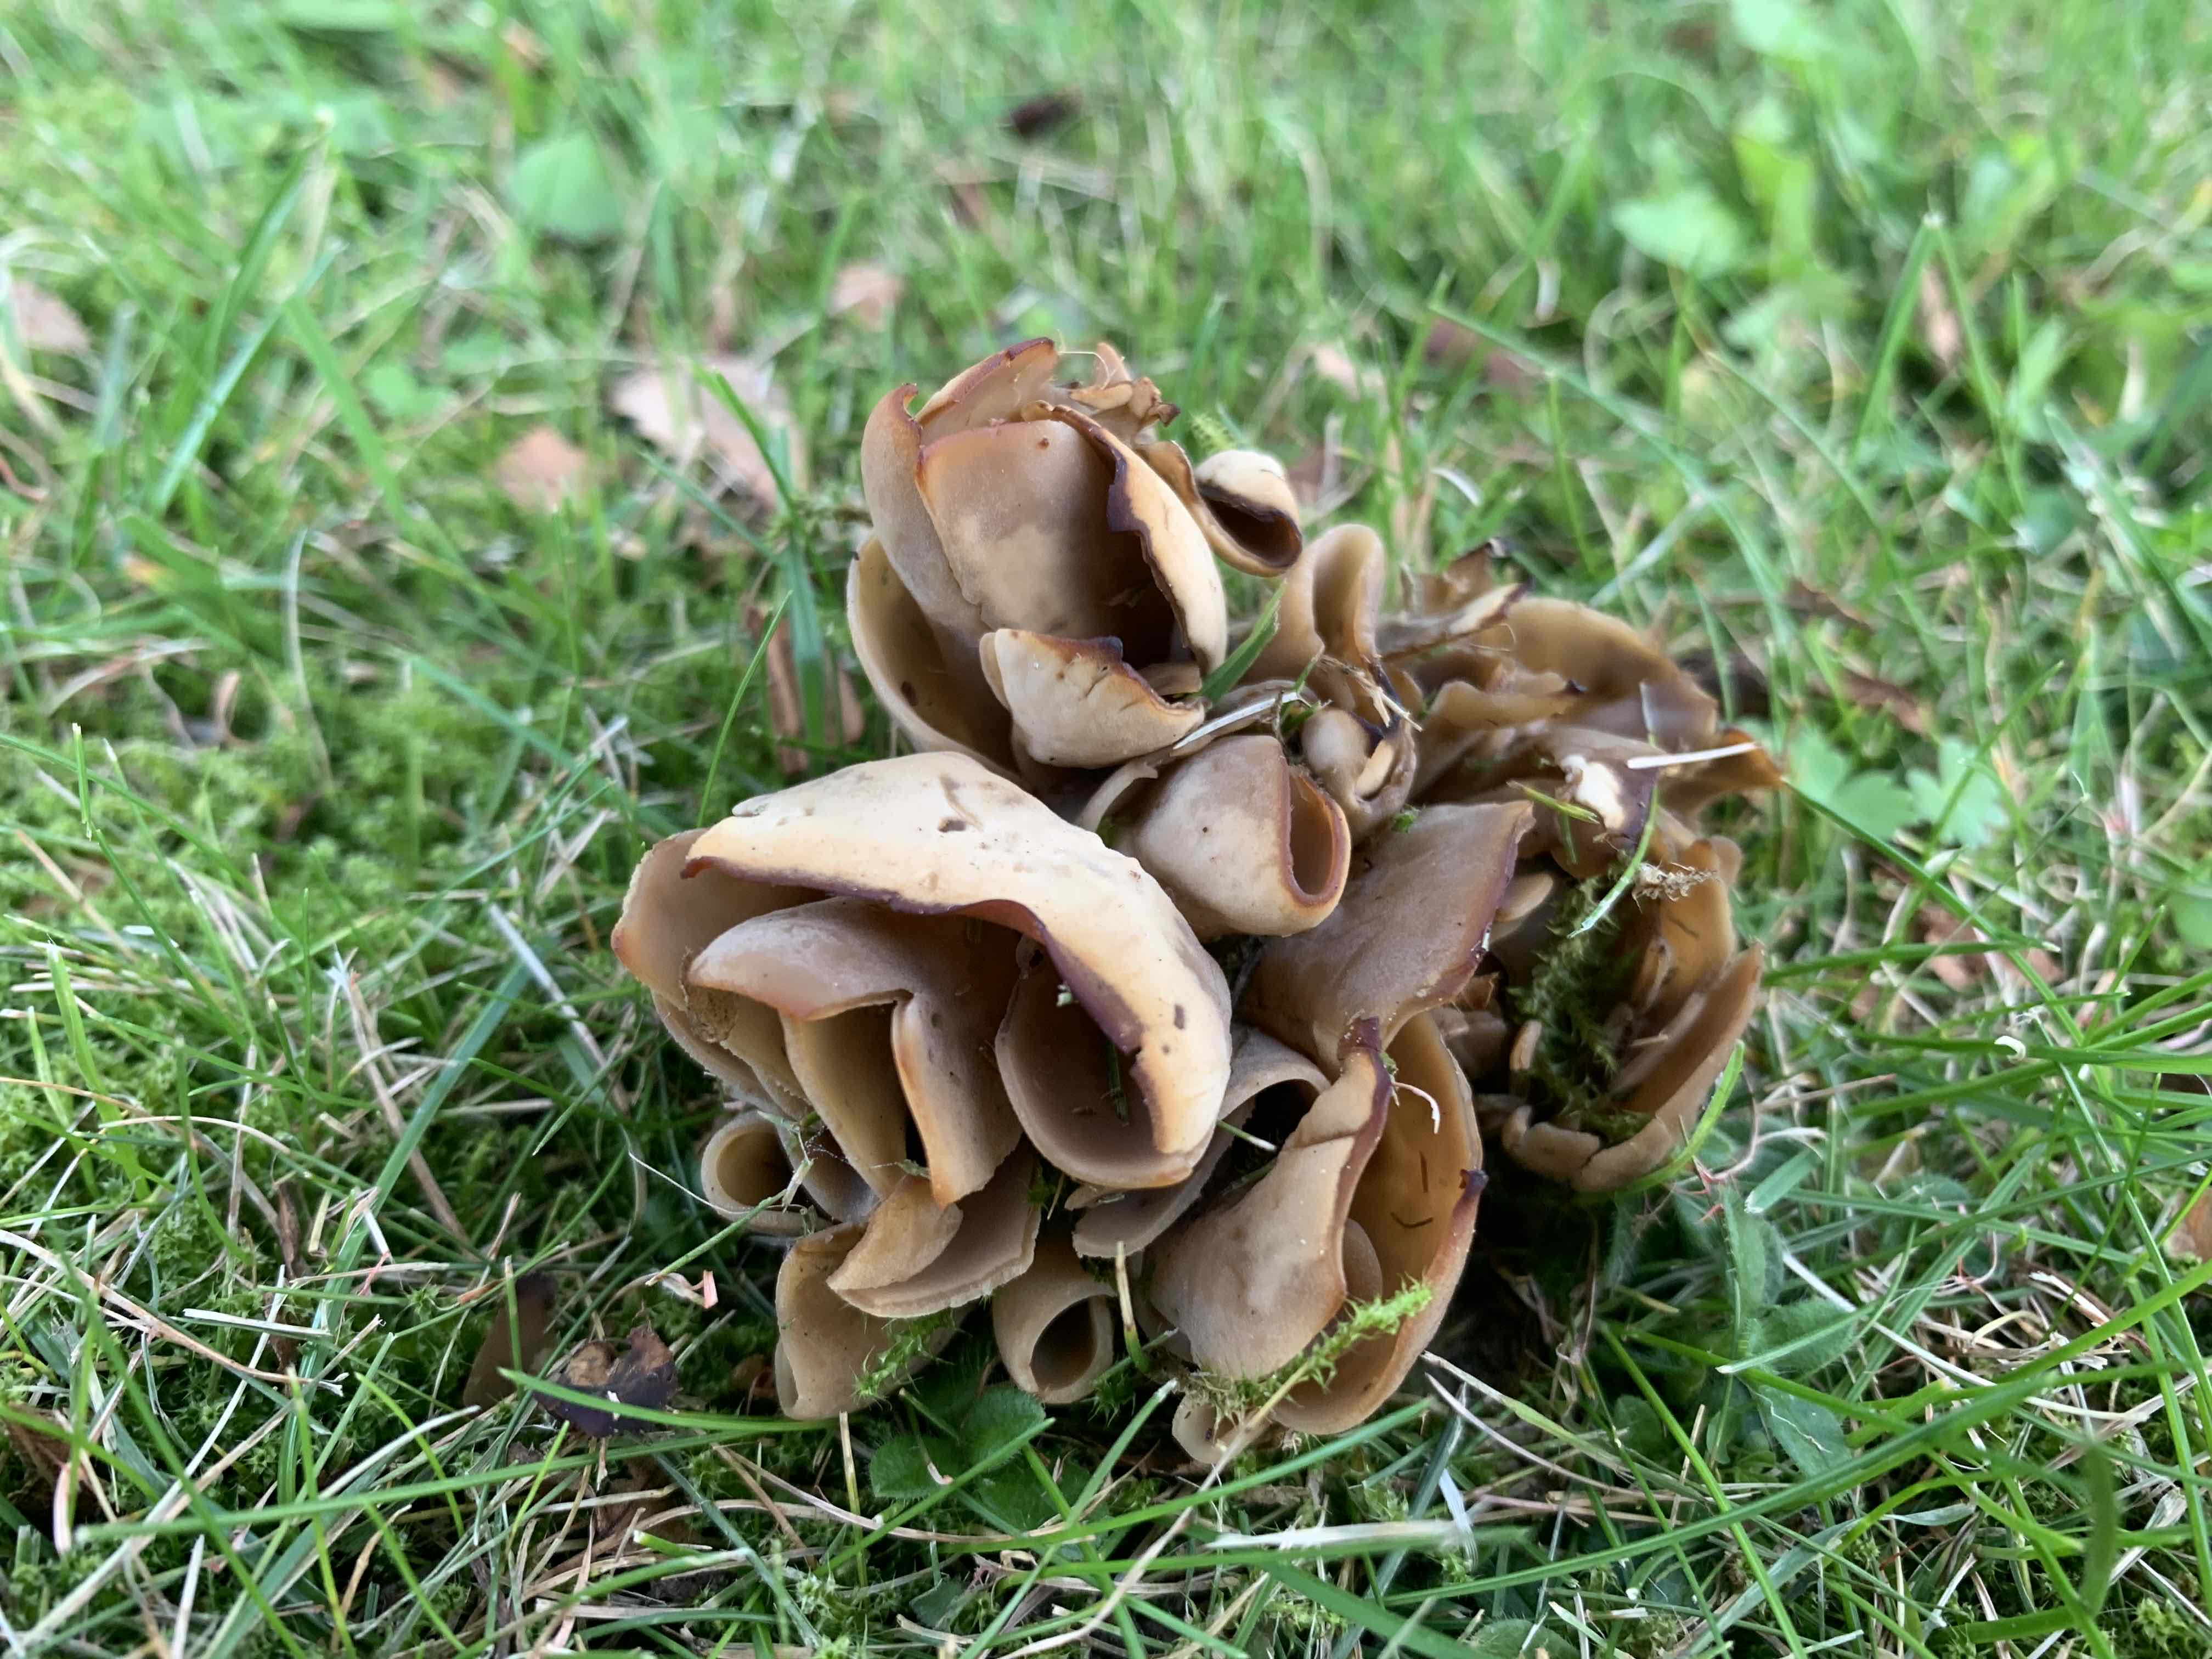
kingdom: Fungi
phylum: Ascomycota
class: Pezizomycetes
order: Pezizales
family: Otideaceae
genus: Otidea
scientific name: Otidea alutacea
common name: læder-ørebæger
